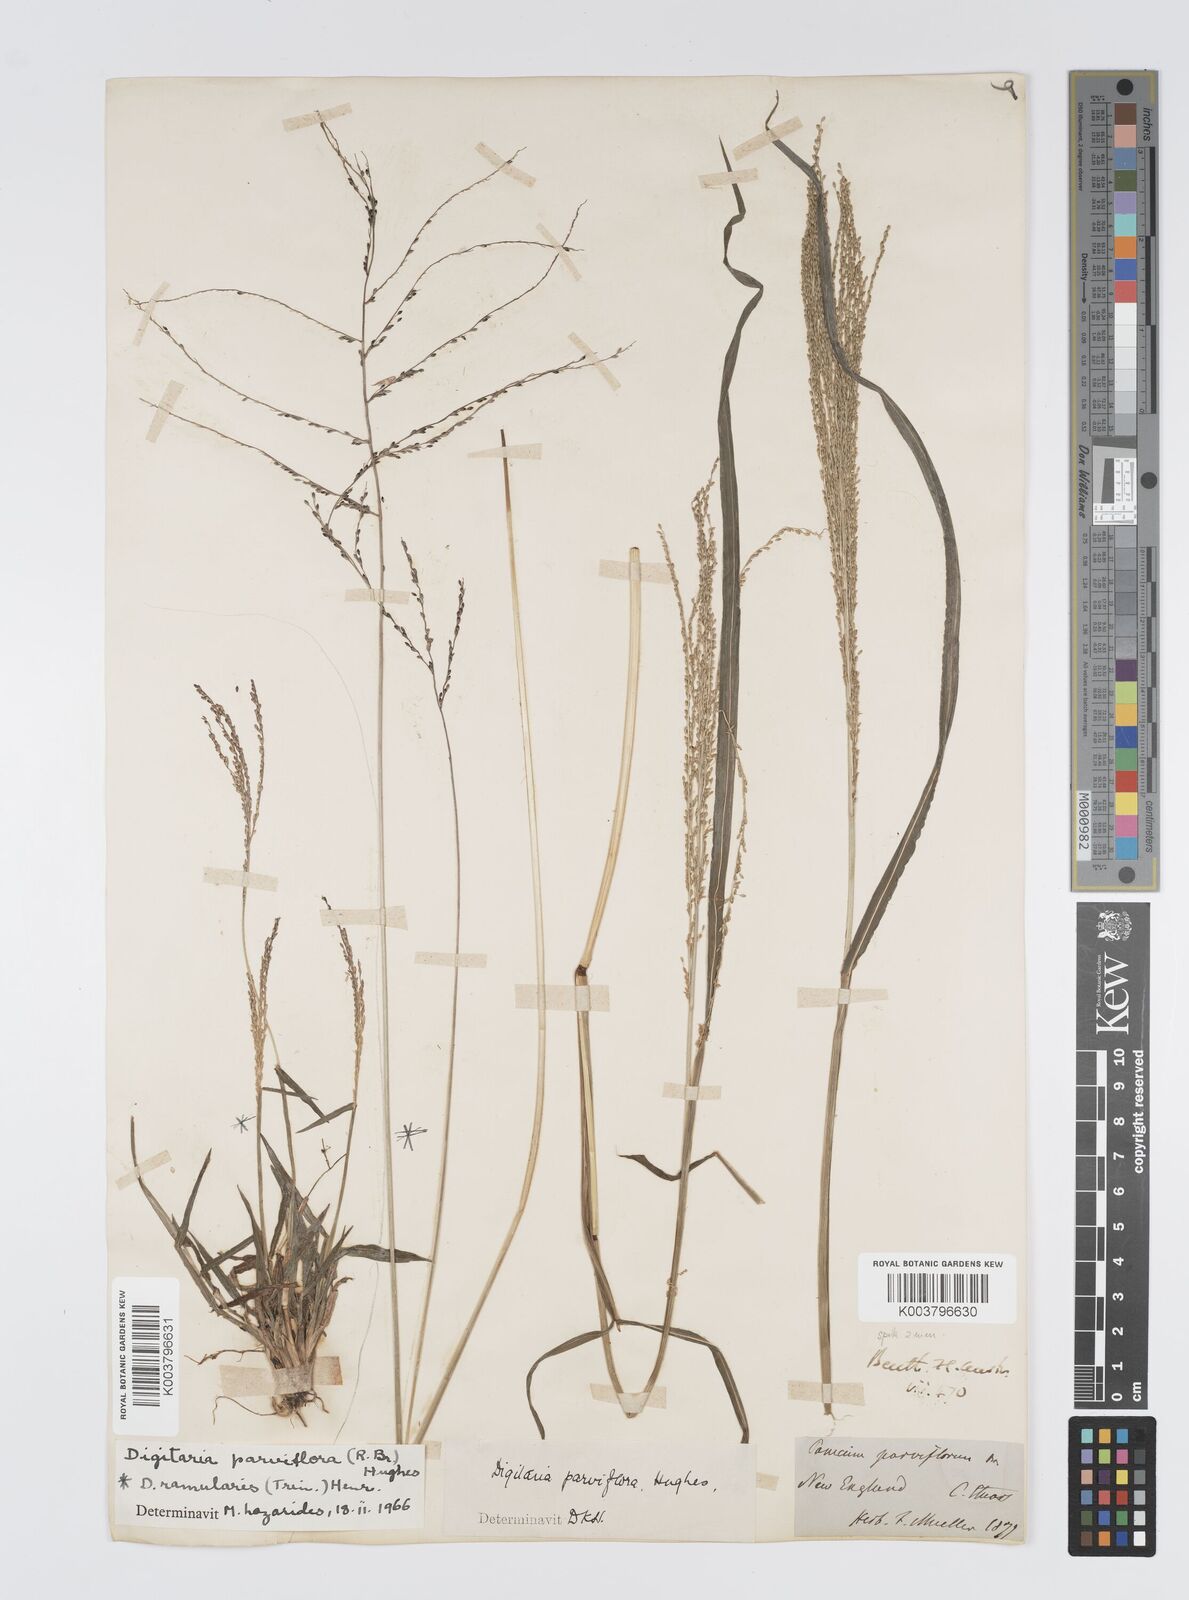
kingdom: Plantae
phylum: Tracheophyta
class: Liliopsida
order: Poales
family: Poaceae
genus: Digitaria
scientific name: Digitaria parviflora
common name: Small-flower finger grass
